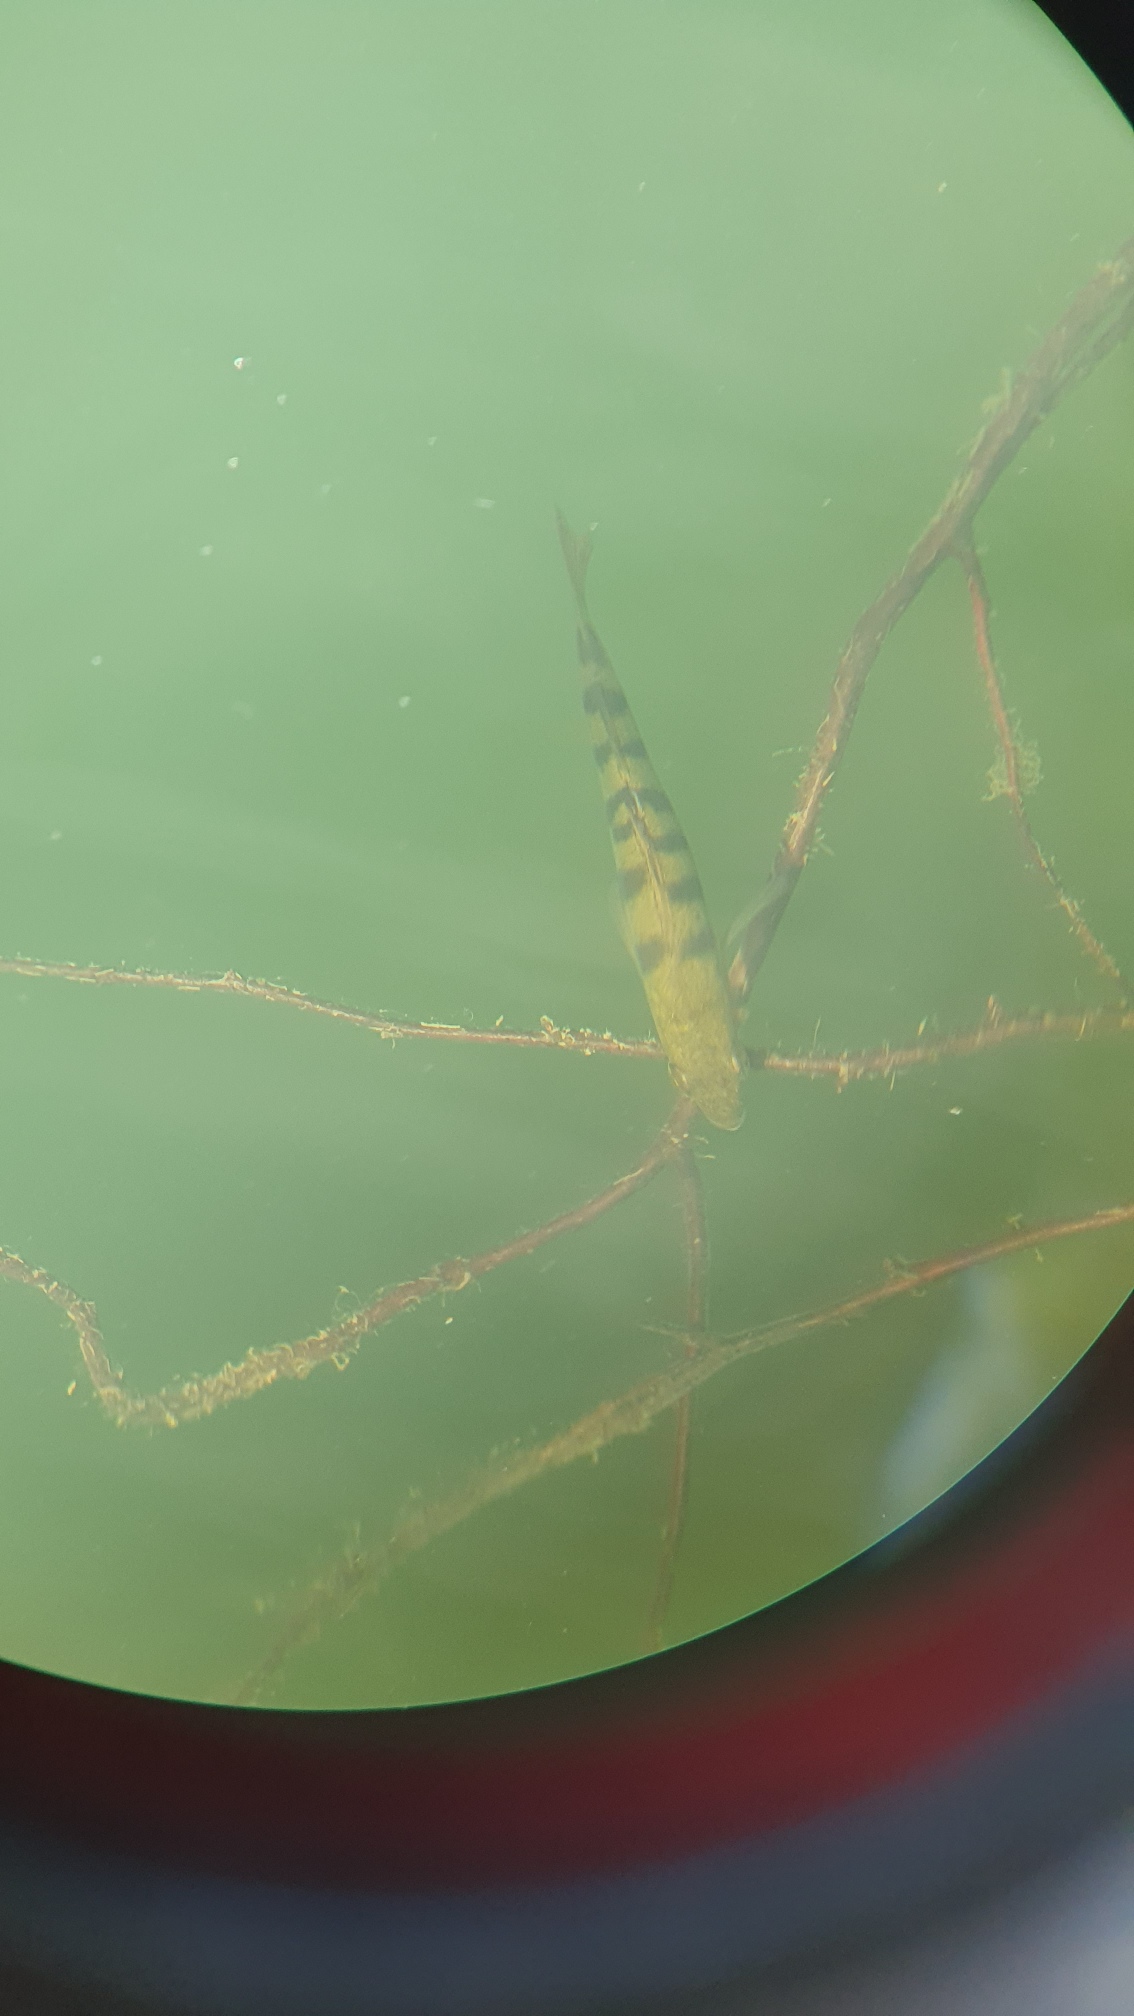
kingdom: Animalia
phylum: Chordata
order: Perciformes
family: Percidae
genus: Perca
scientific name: Perca fluviatilis
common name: Aborre
